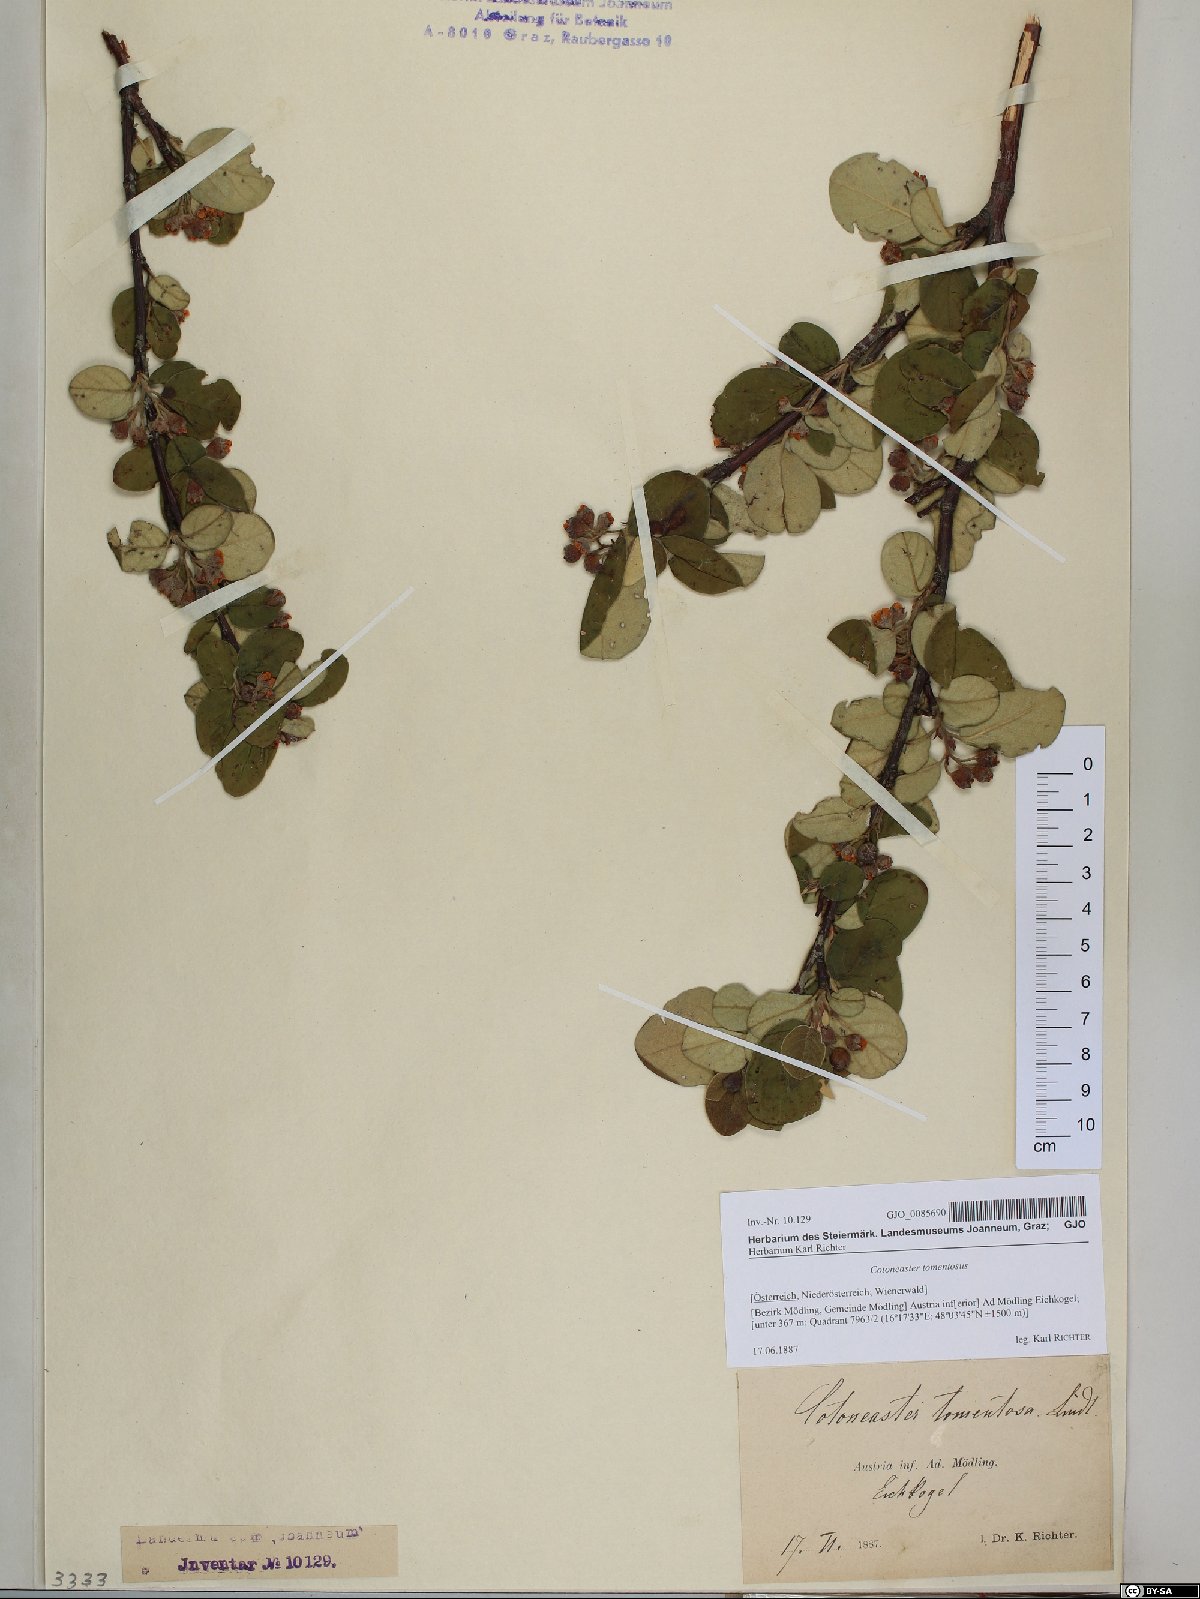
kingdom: Plantae
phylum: Tracheophyta
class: Magnoliopsida
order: Rosales
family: Rosaceae
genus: Cotoneaster
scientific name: Cotoneaster tomentosus
